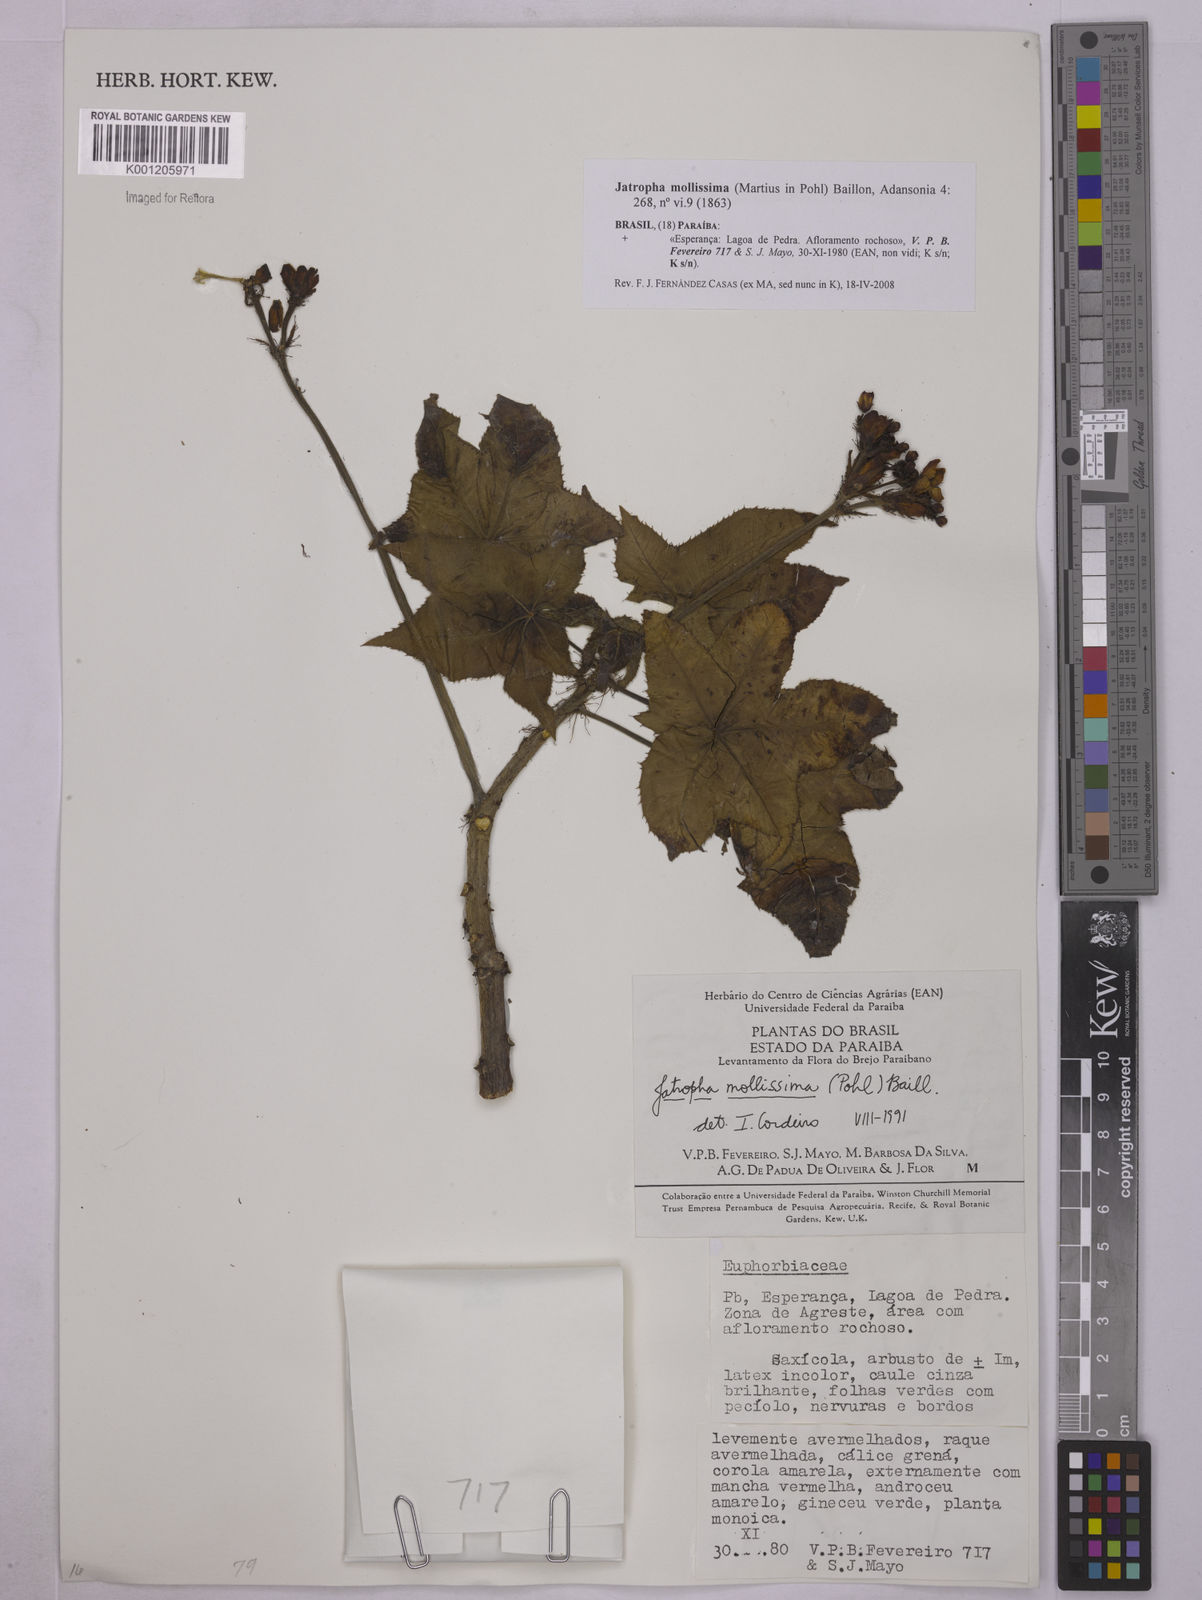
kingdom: Plantae
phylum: Tracheophyta
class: Magnoliopsida
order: Malpighiales
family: Euphorbiaceae
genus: Jatropha
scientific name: Jatropha mollissima
